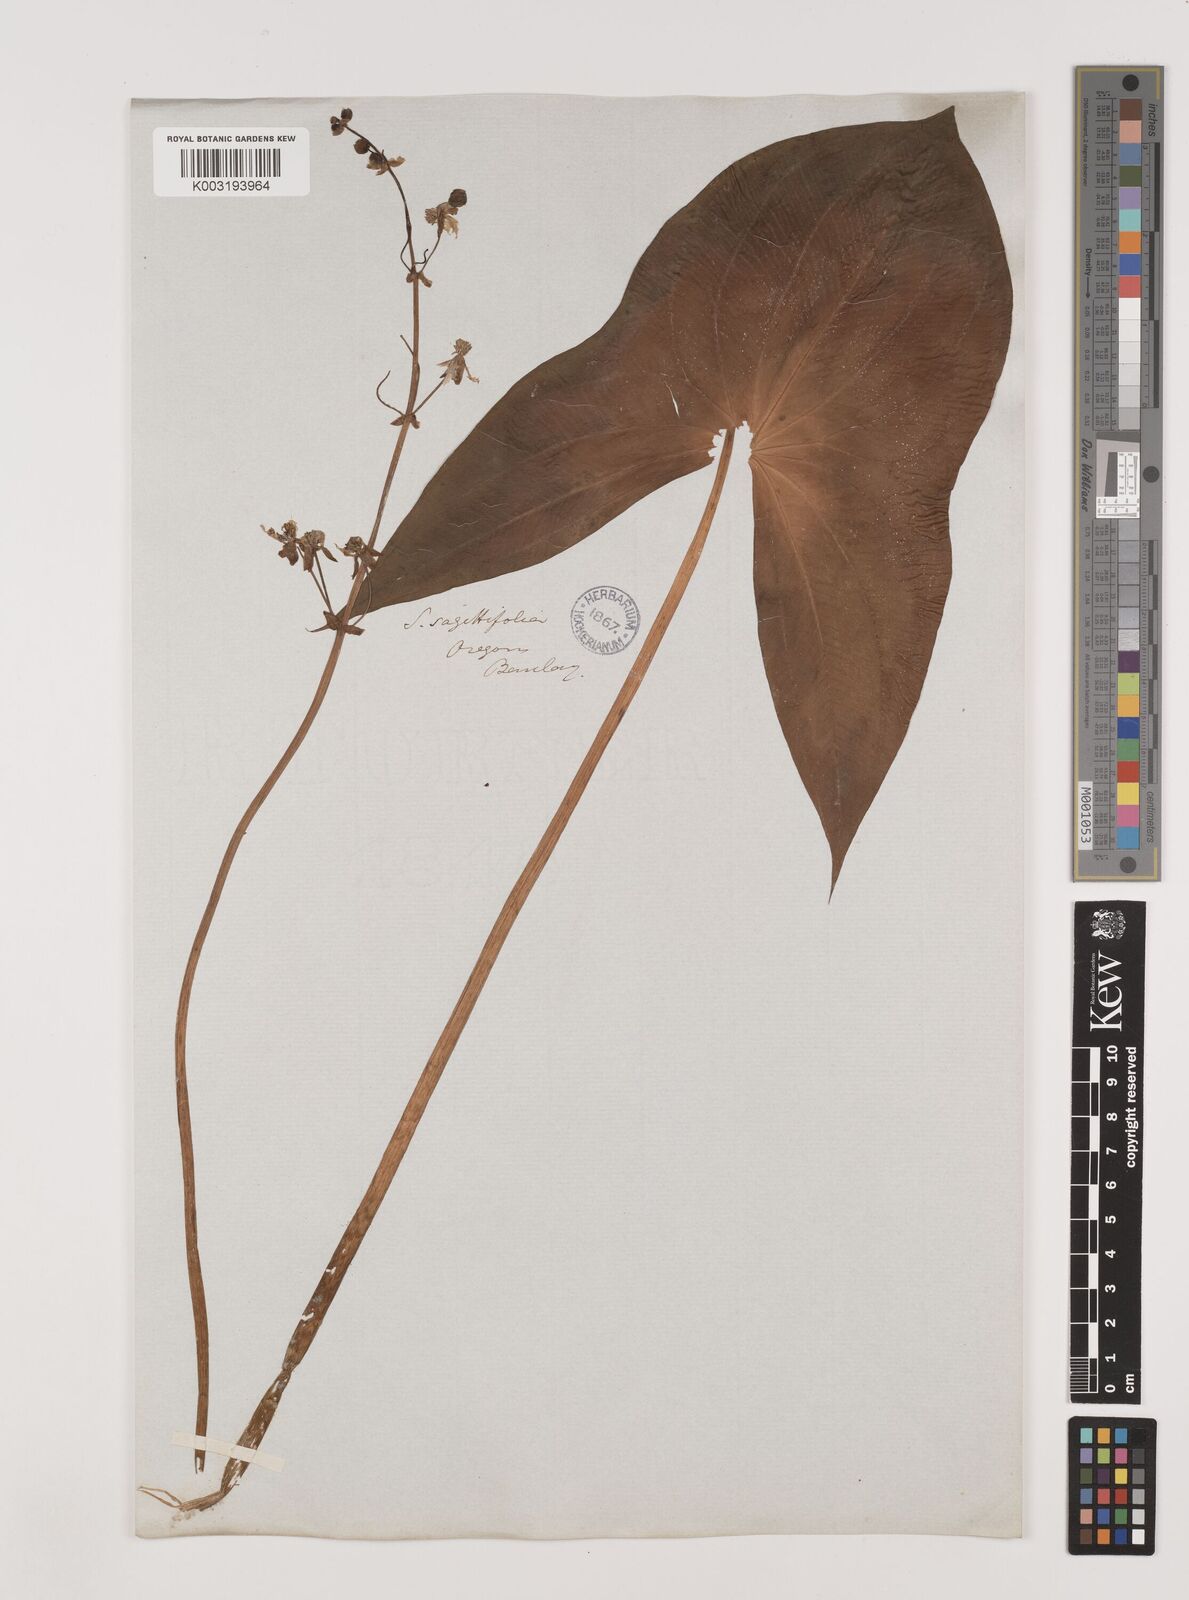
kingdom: Plantae
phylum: Tracheophyta
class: Liliopsida
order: Alismatales
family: Alismataceae
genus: Sagittaria
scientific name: Sagittaria sagittifolia
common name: Arrowhead
